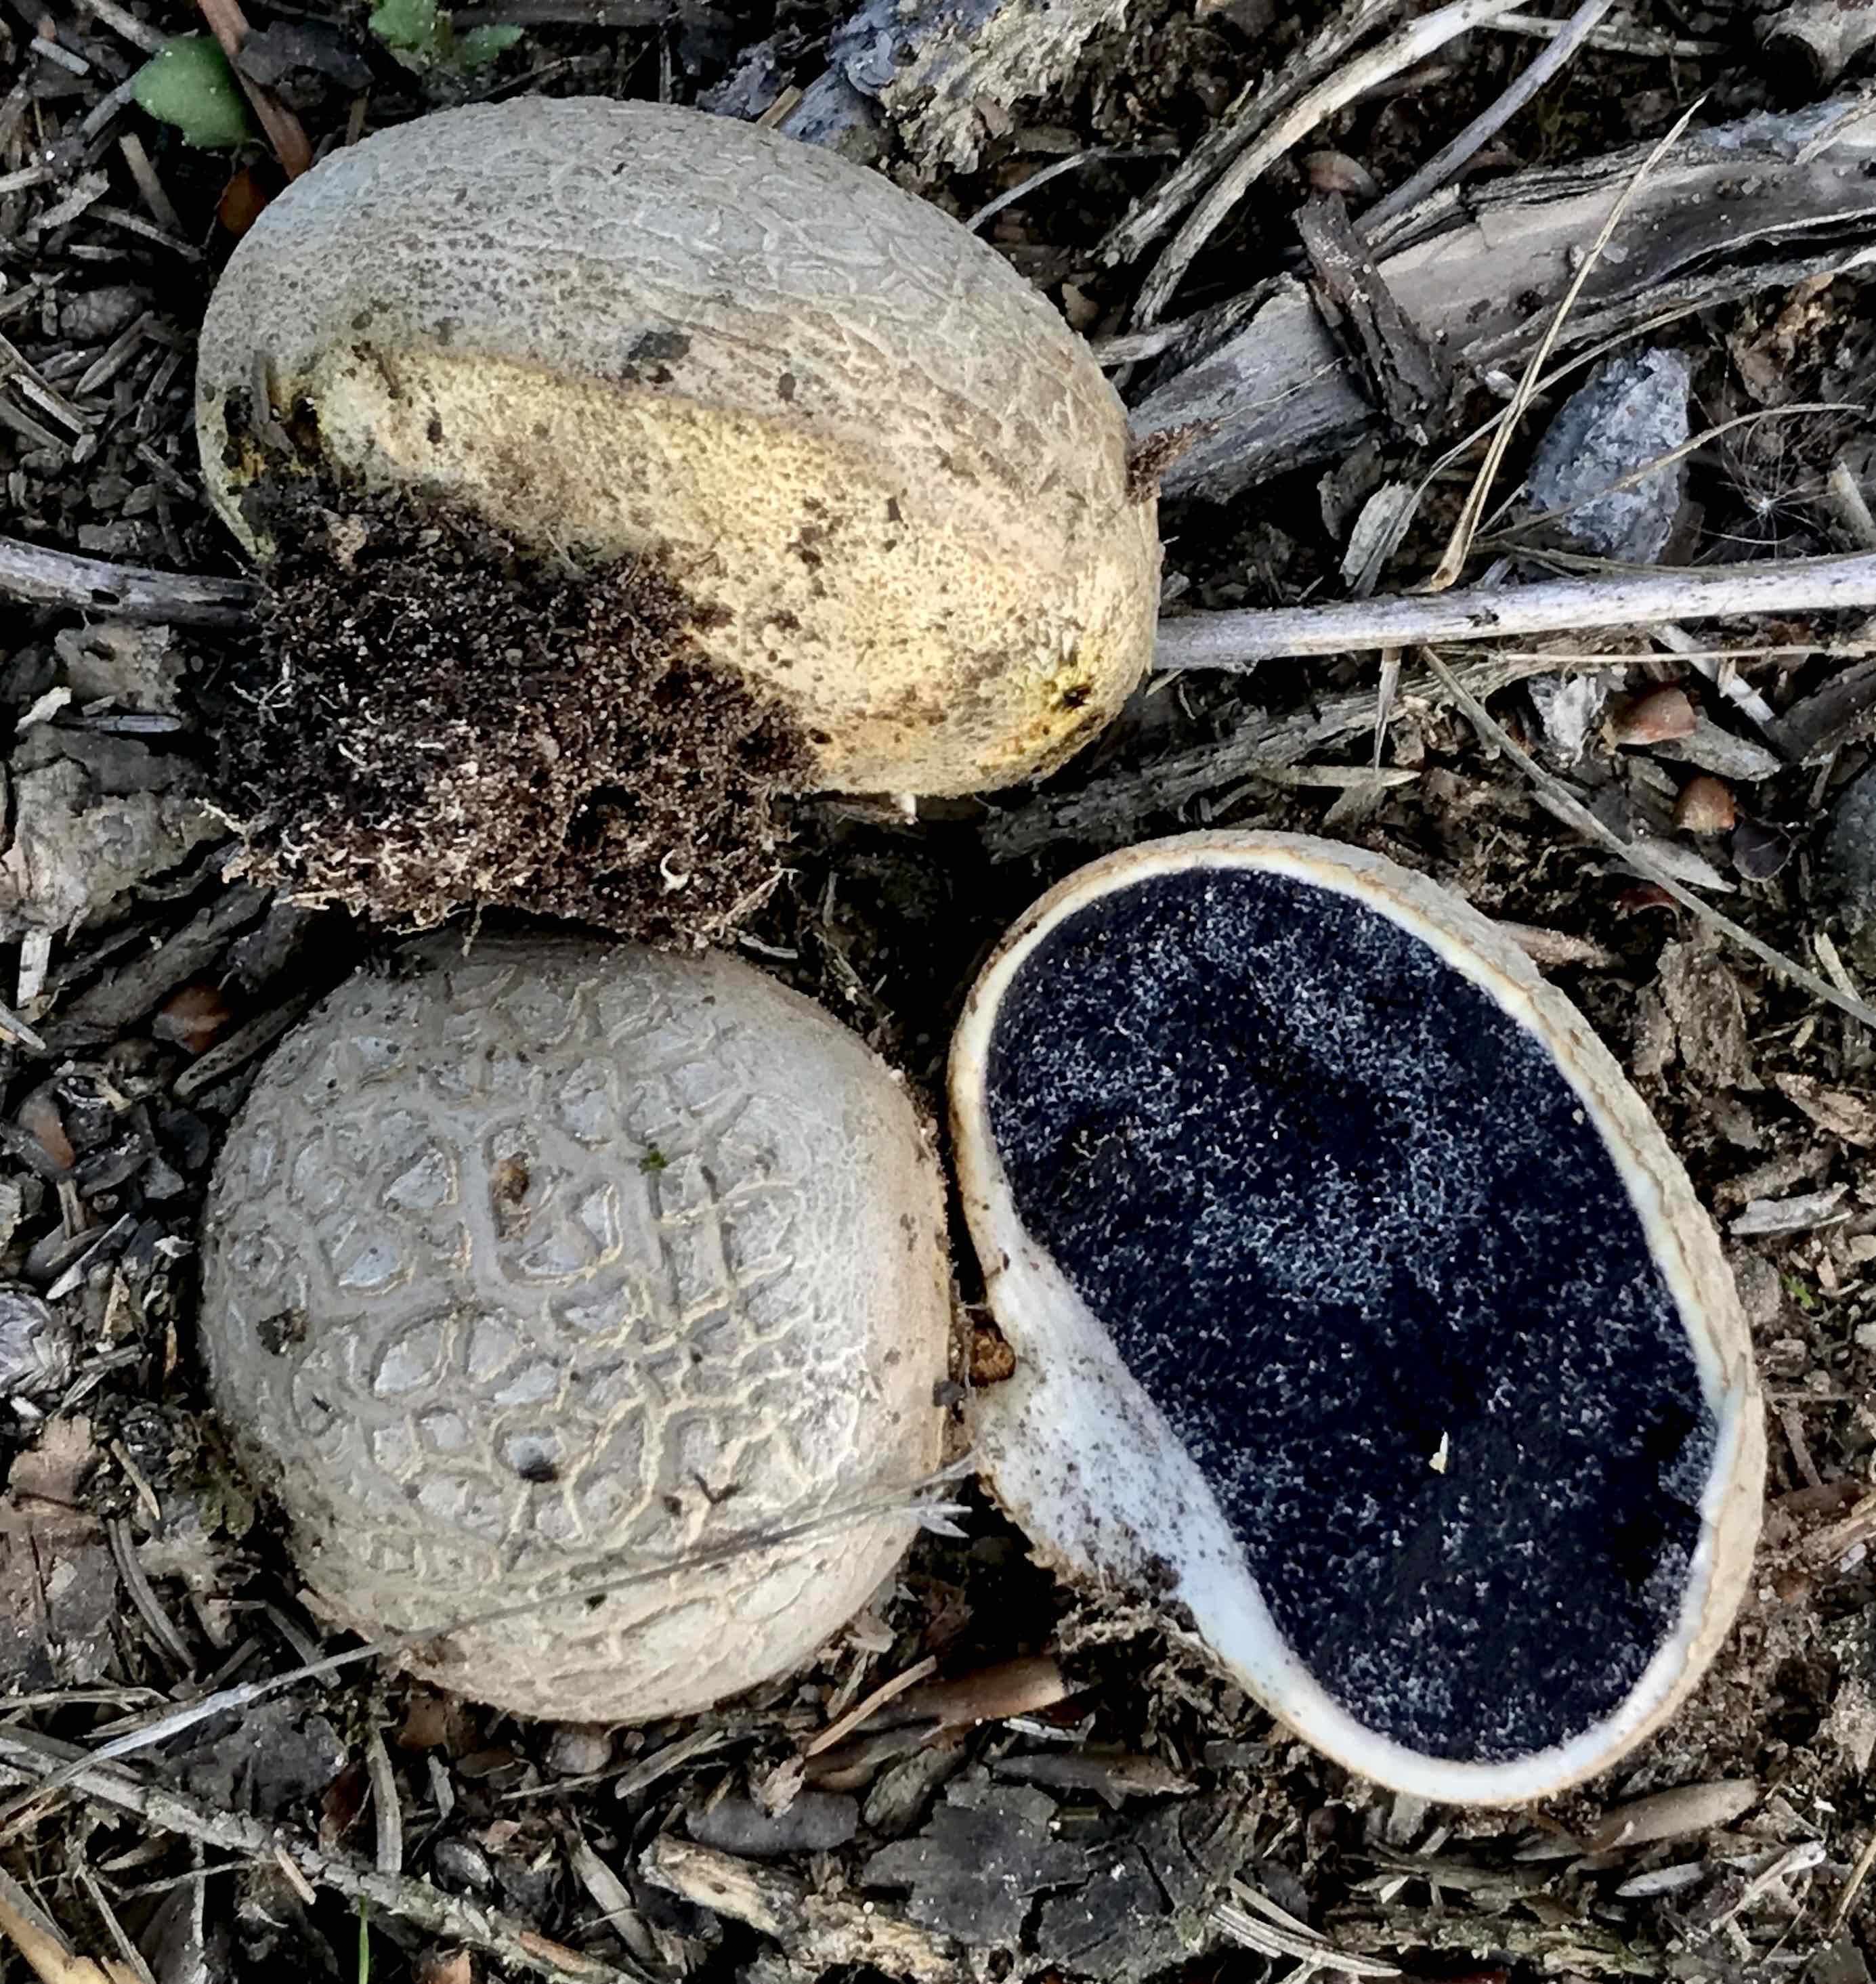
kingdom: Fungi
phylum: Basidiomycota
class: Agaricomycetes
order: Boletales
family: Sclerodermataceae
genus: Scleroderma
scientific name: Scleroderma citrinum
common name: almindelig bruskbold
